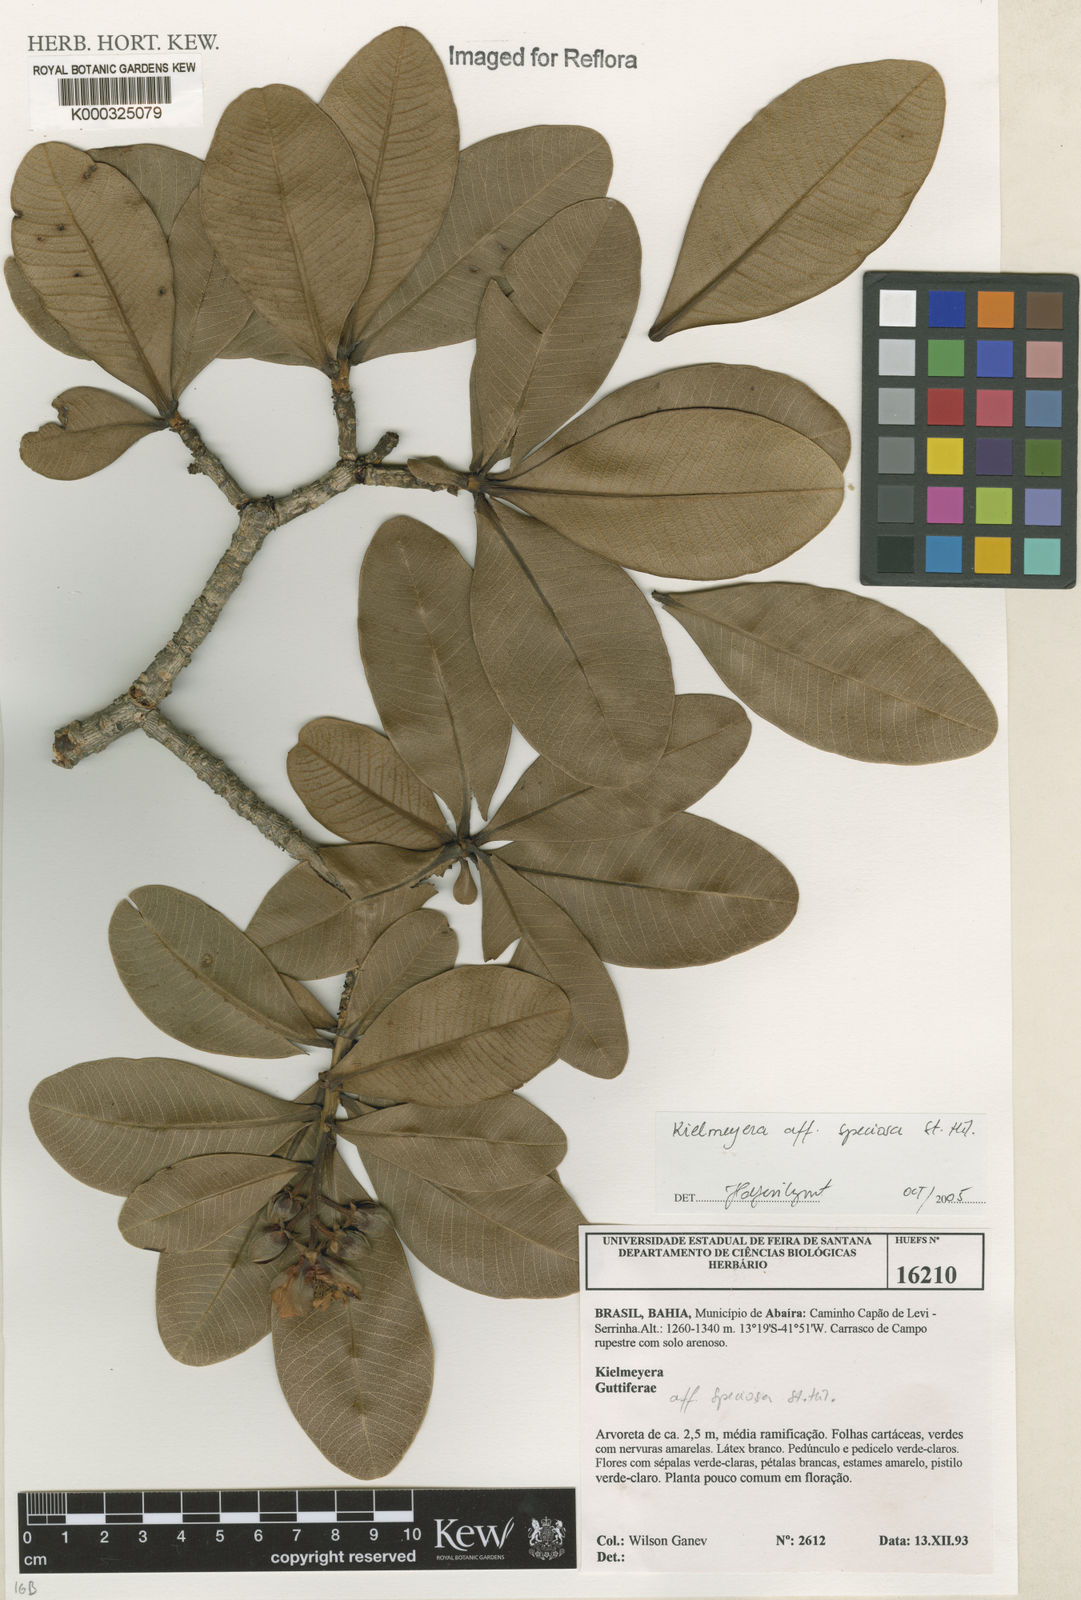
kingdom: Plantae
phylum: Tracheophyta
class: Magnoliopsida
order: Malpighiales
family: Clusiaceae
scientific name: Clusiaceae
